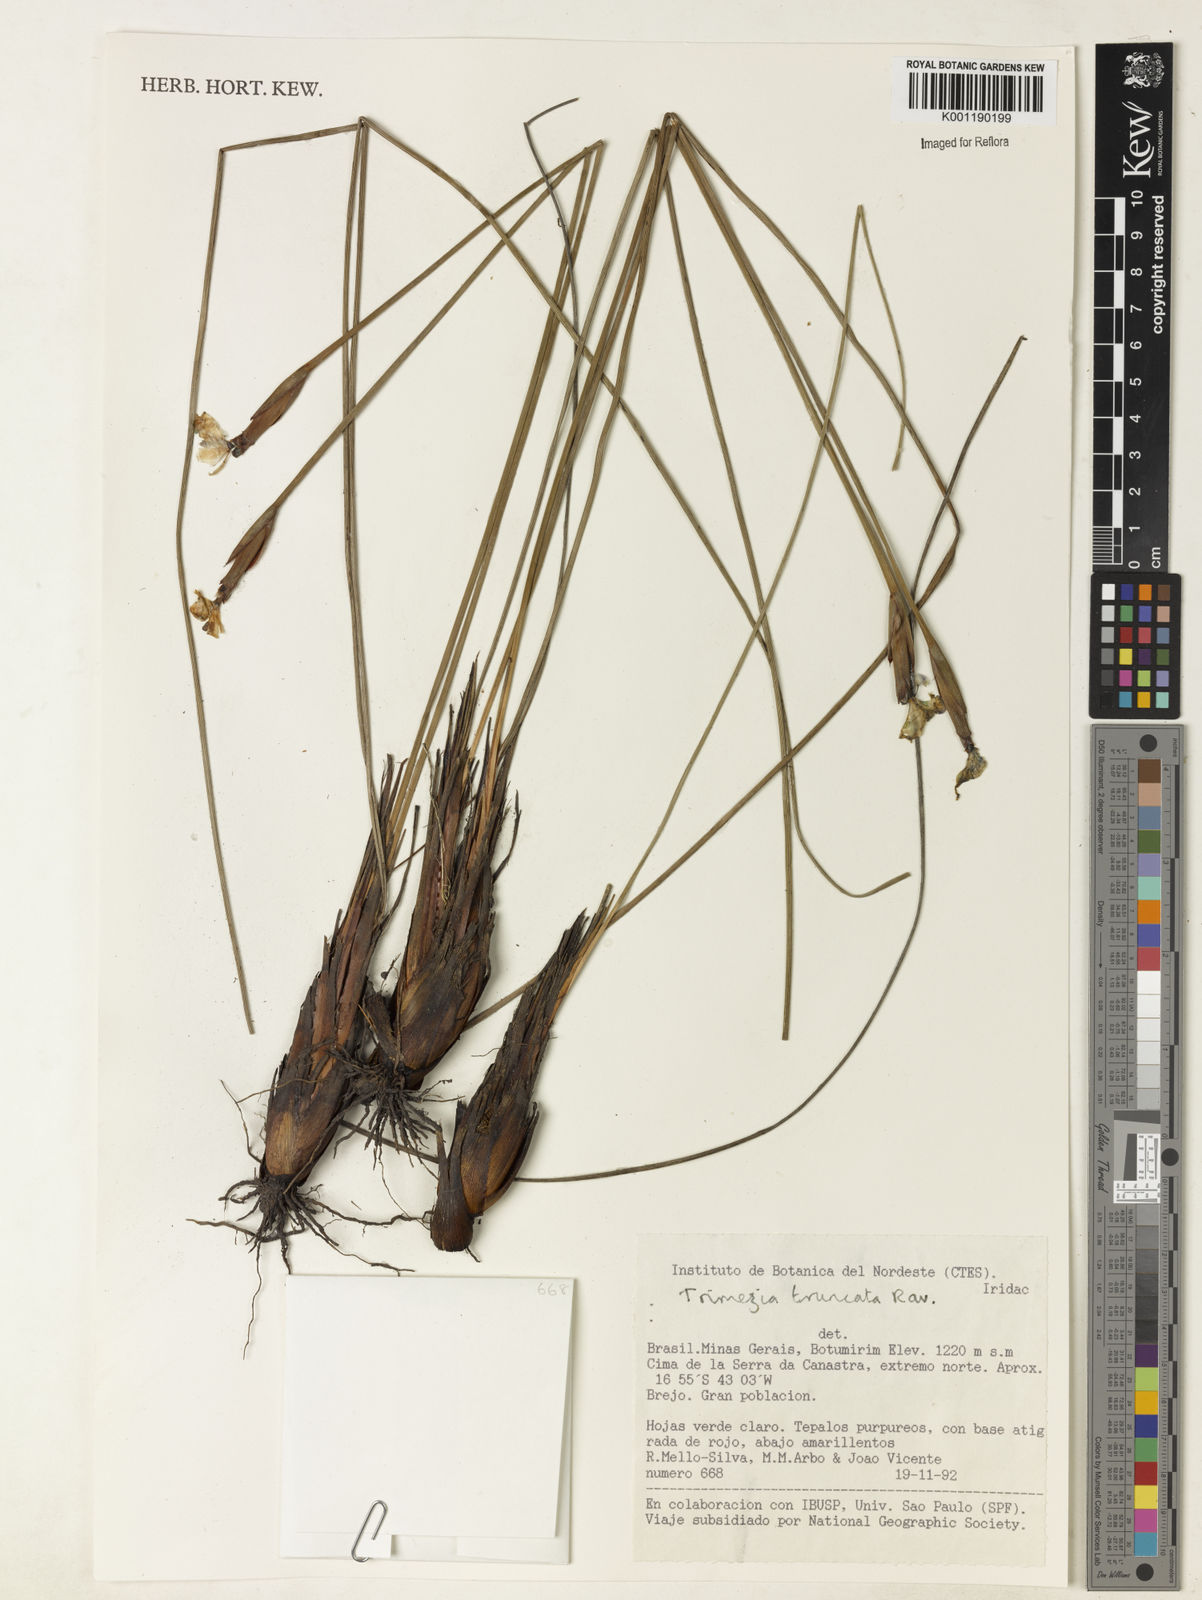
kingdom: Plantae
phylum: Tracheophyta
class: Liliopsida
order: Asparagales
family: Iridaceae
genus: Trimezia
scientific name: Trimezia truncata
